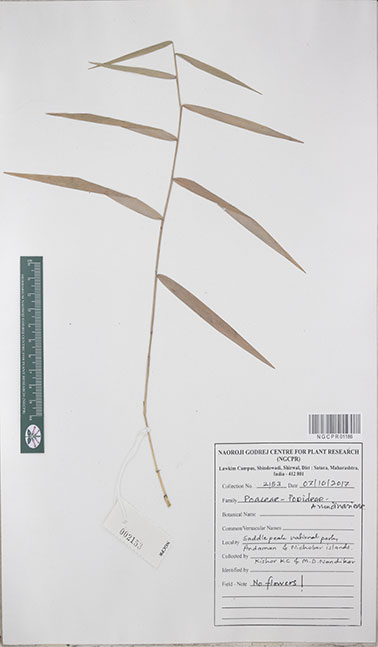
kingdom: Plantae
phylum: Tracheophyta
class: Liliopsida
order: Poales
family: Poaceae
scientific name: Poaceae
